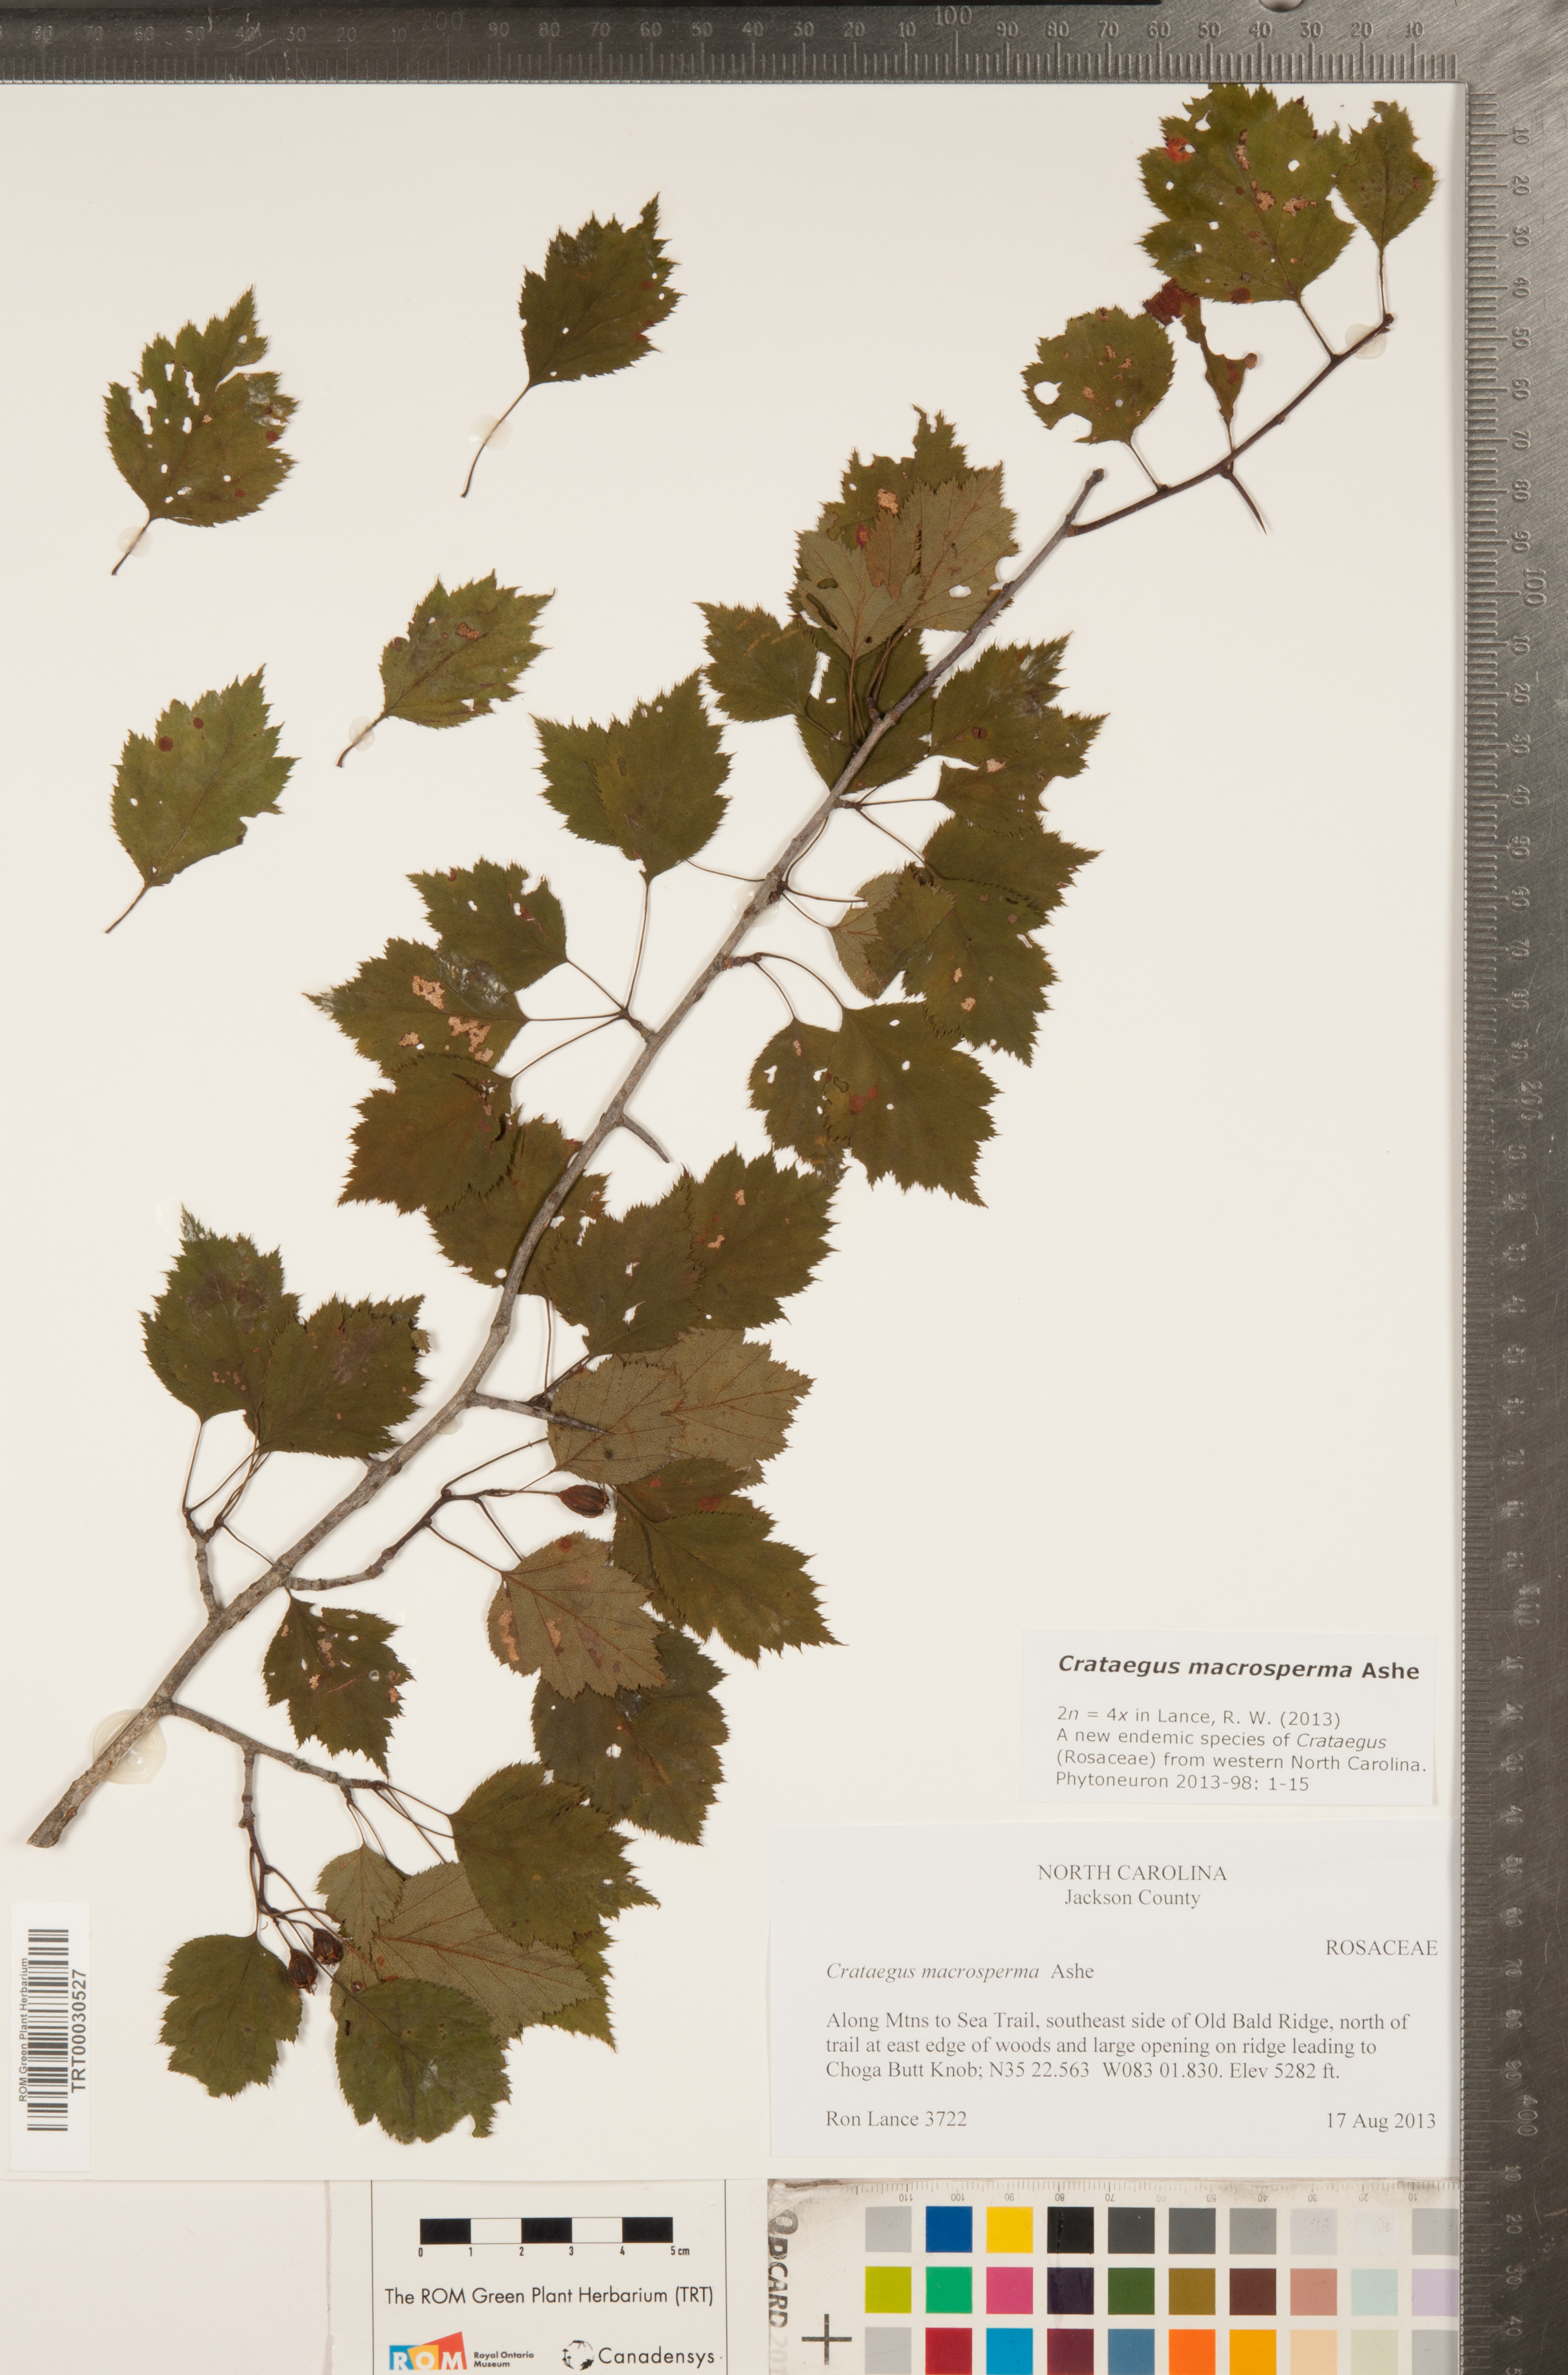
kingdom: Plantae
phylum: Tracheophyta
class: Magnoliopsida
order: Rosales
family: Rosaceae
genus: Crataegus
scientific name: Crataegus macrosperma
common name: Variable hawthorn
